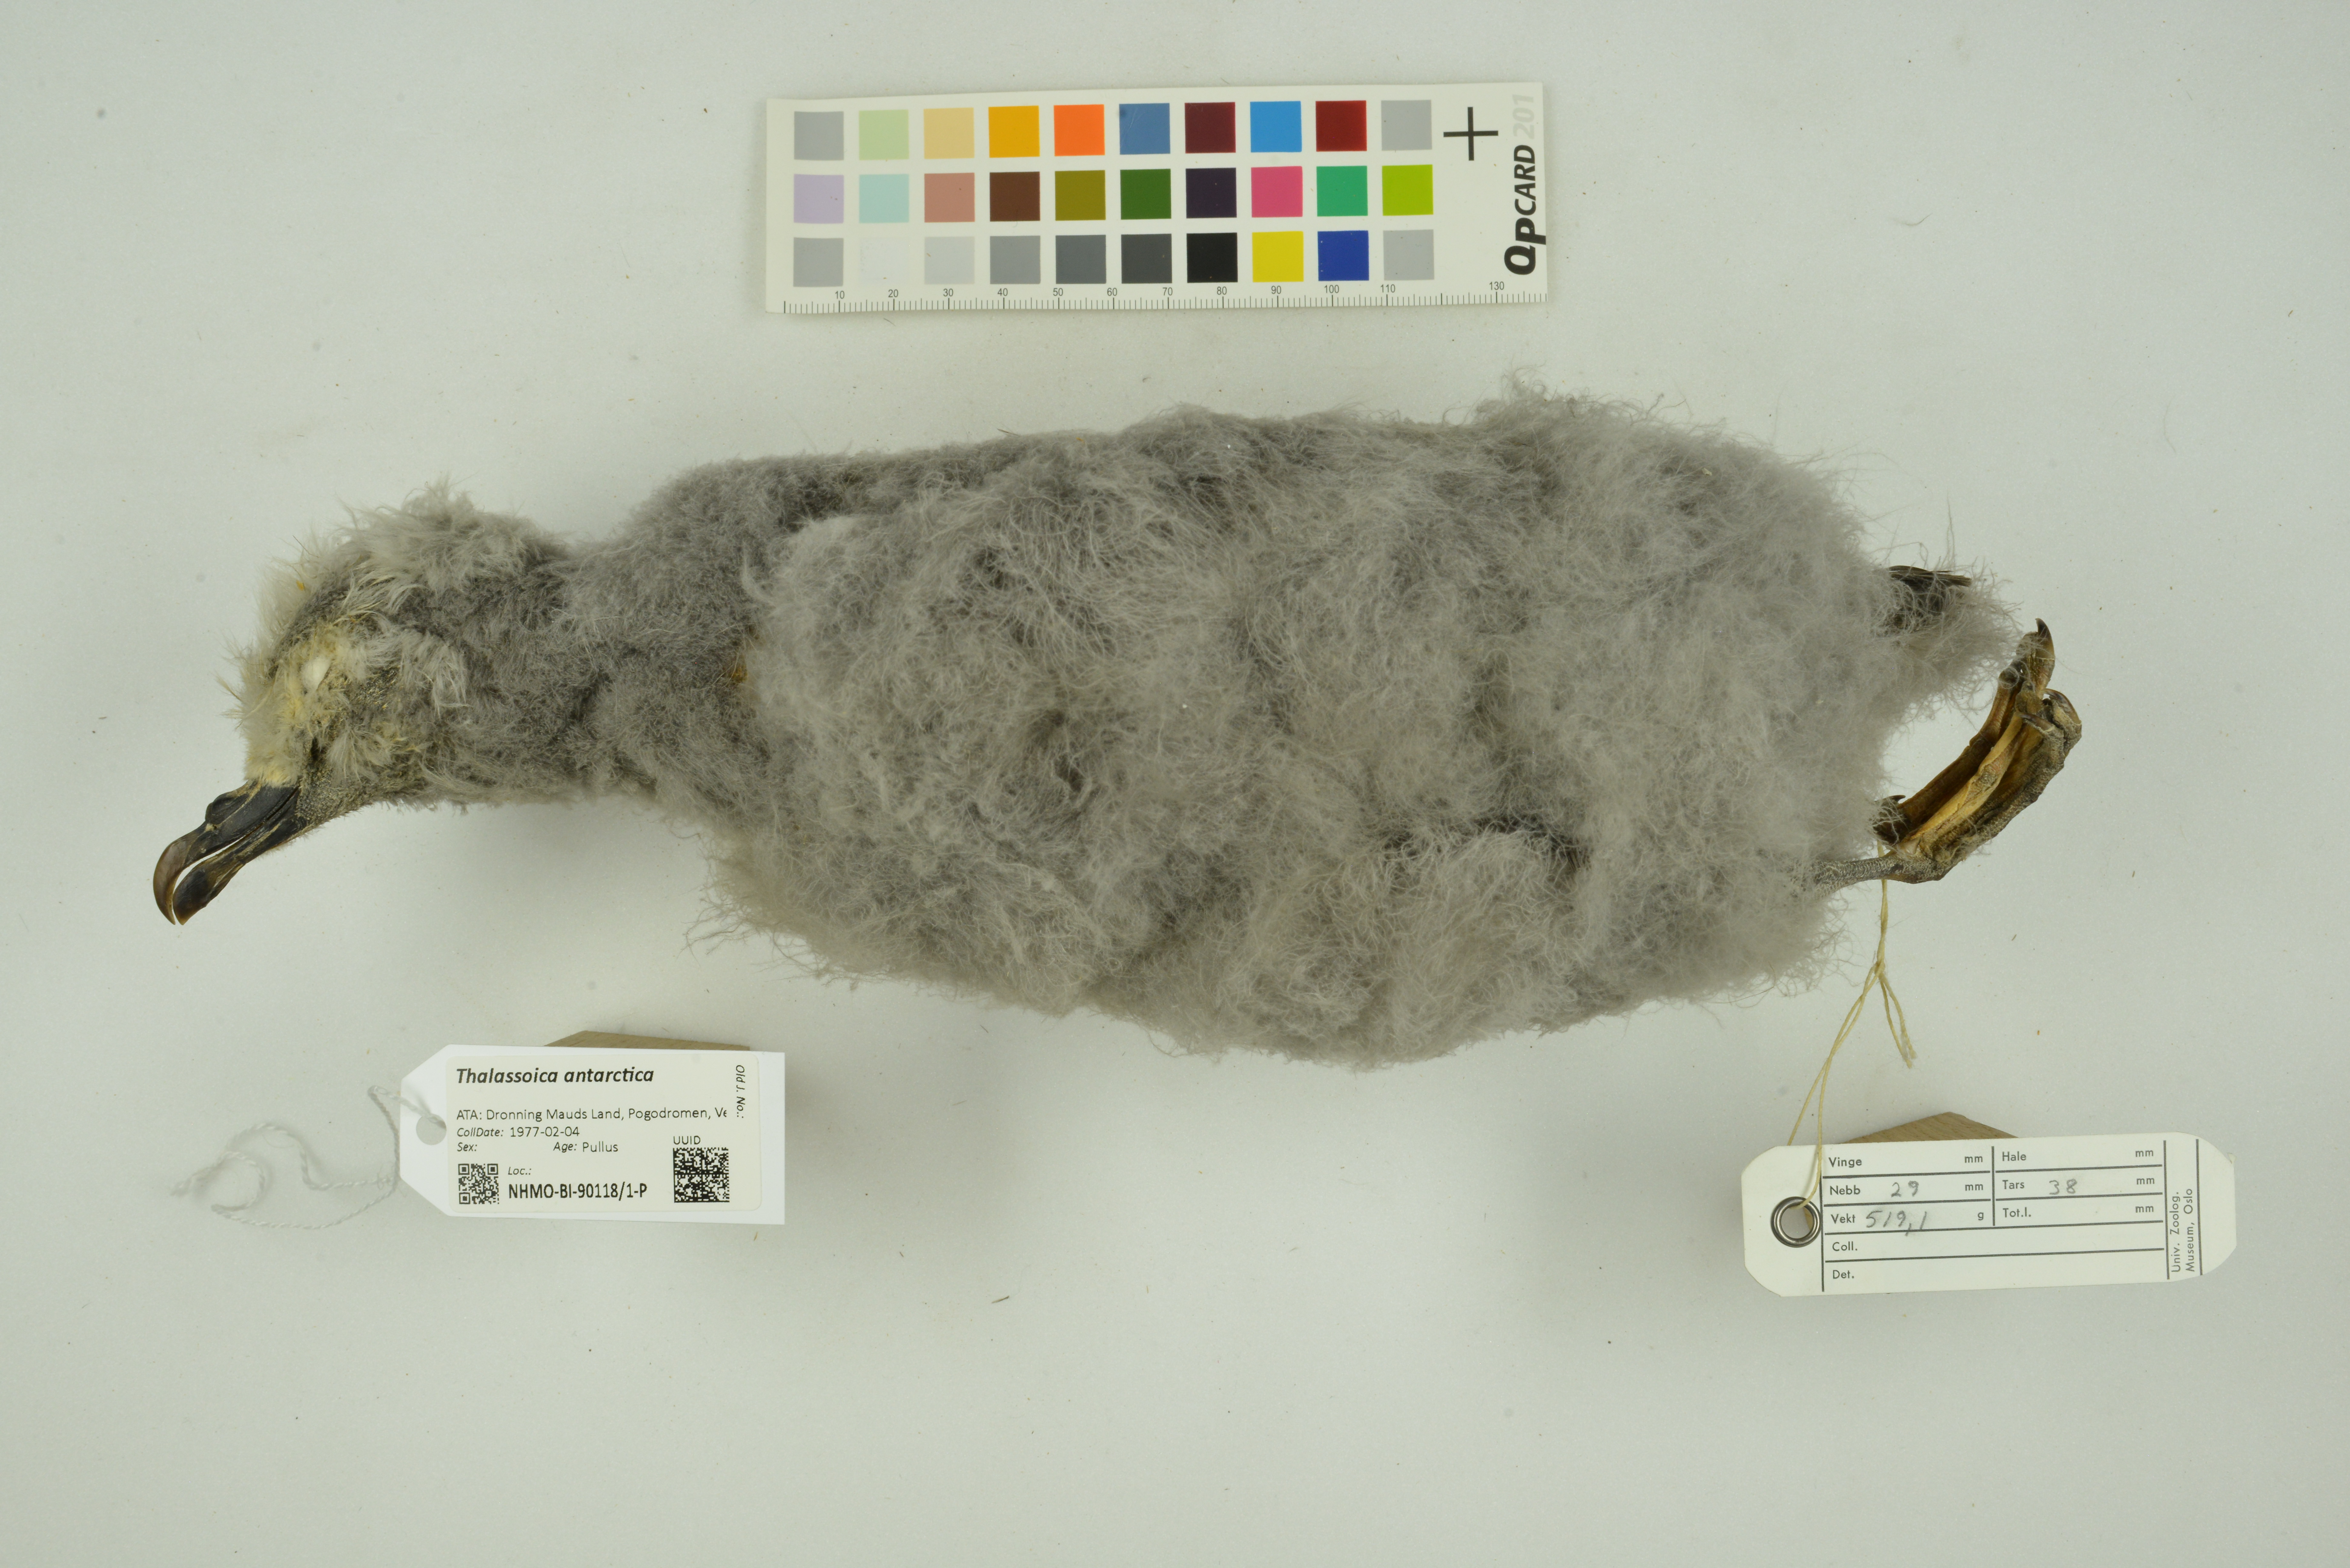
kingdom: Animalia
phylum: Chordata
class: Aves
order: Procellariiformes
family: Procellariidae
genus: Thalassoica
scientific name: Thalassoica antarctica
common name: Antarctic petrel
